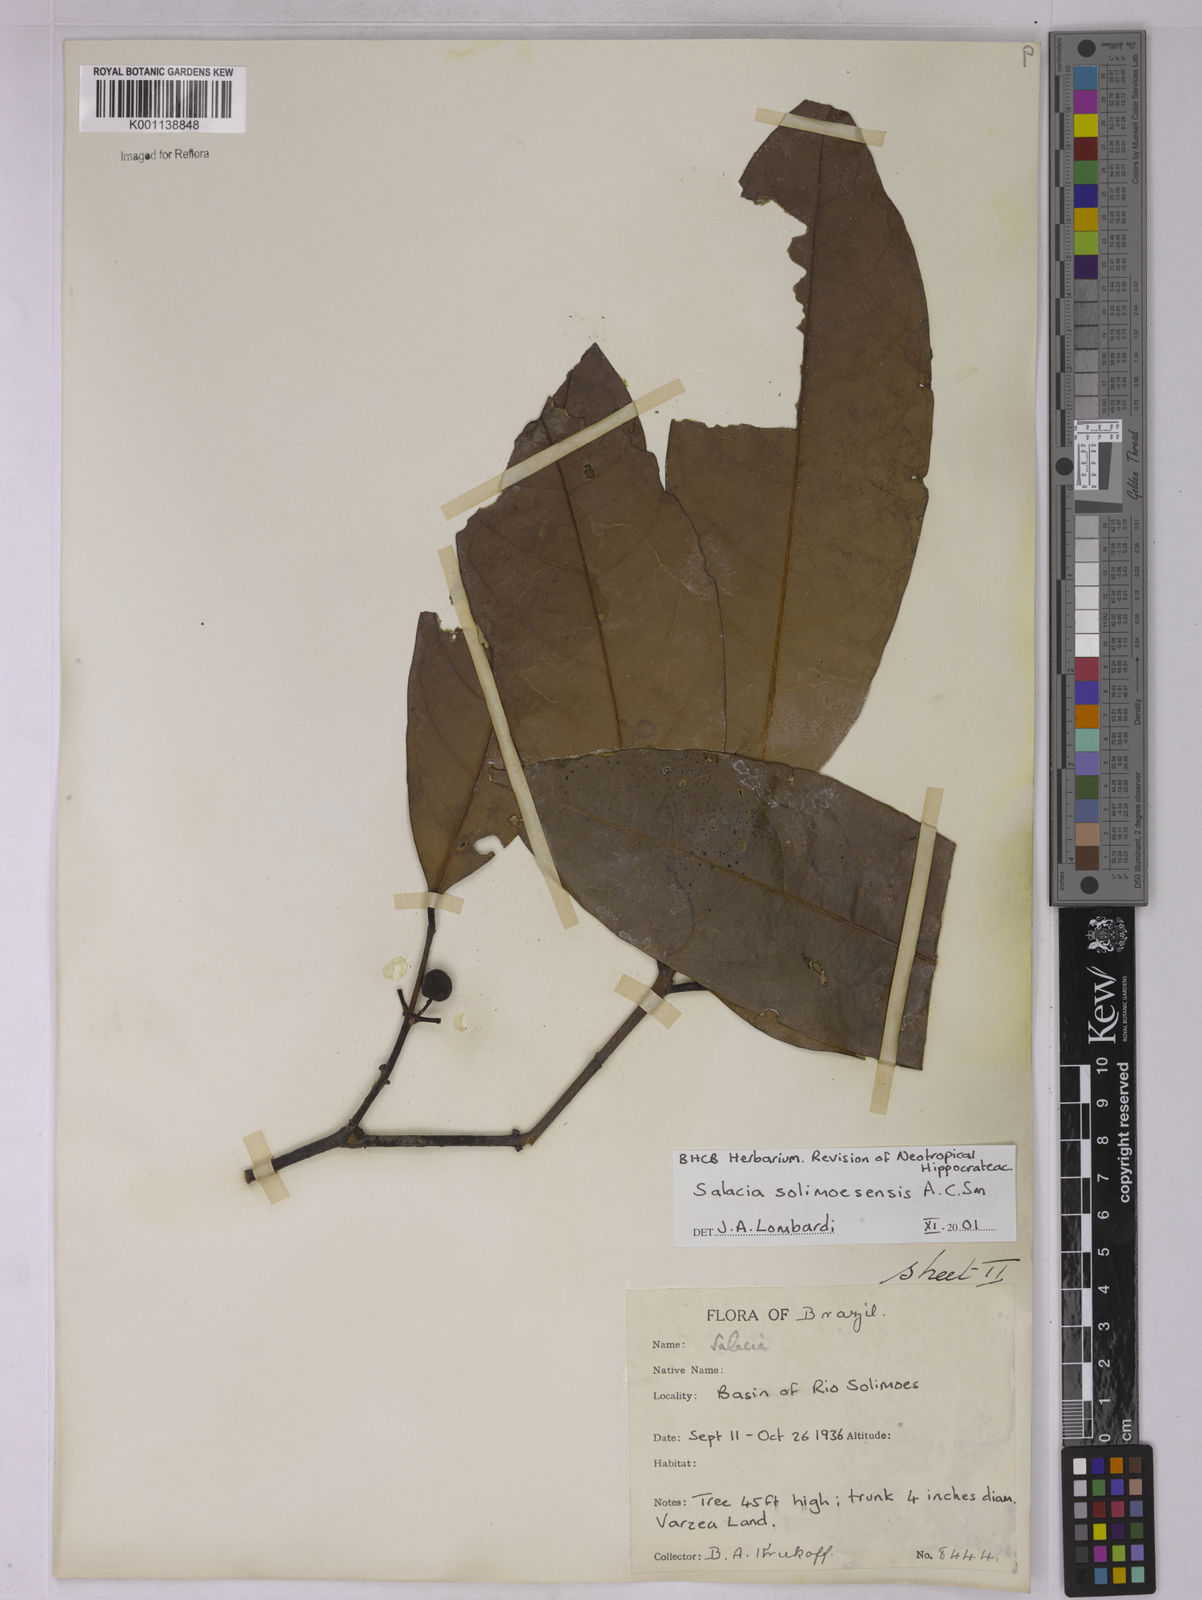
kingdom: Plantae
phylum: Tracheophyta
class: Magnoliopsida
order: Celastrales
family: Celastraceae
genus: Salacia
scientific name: Salacia solimoesensis
